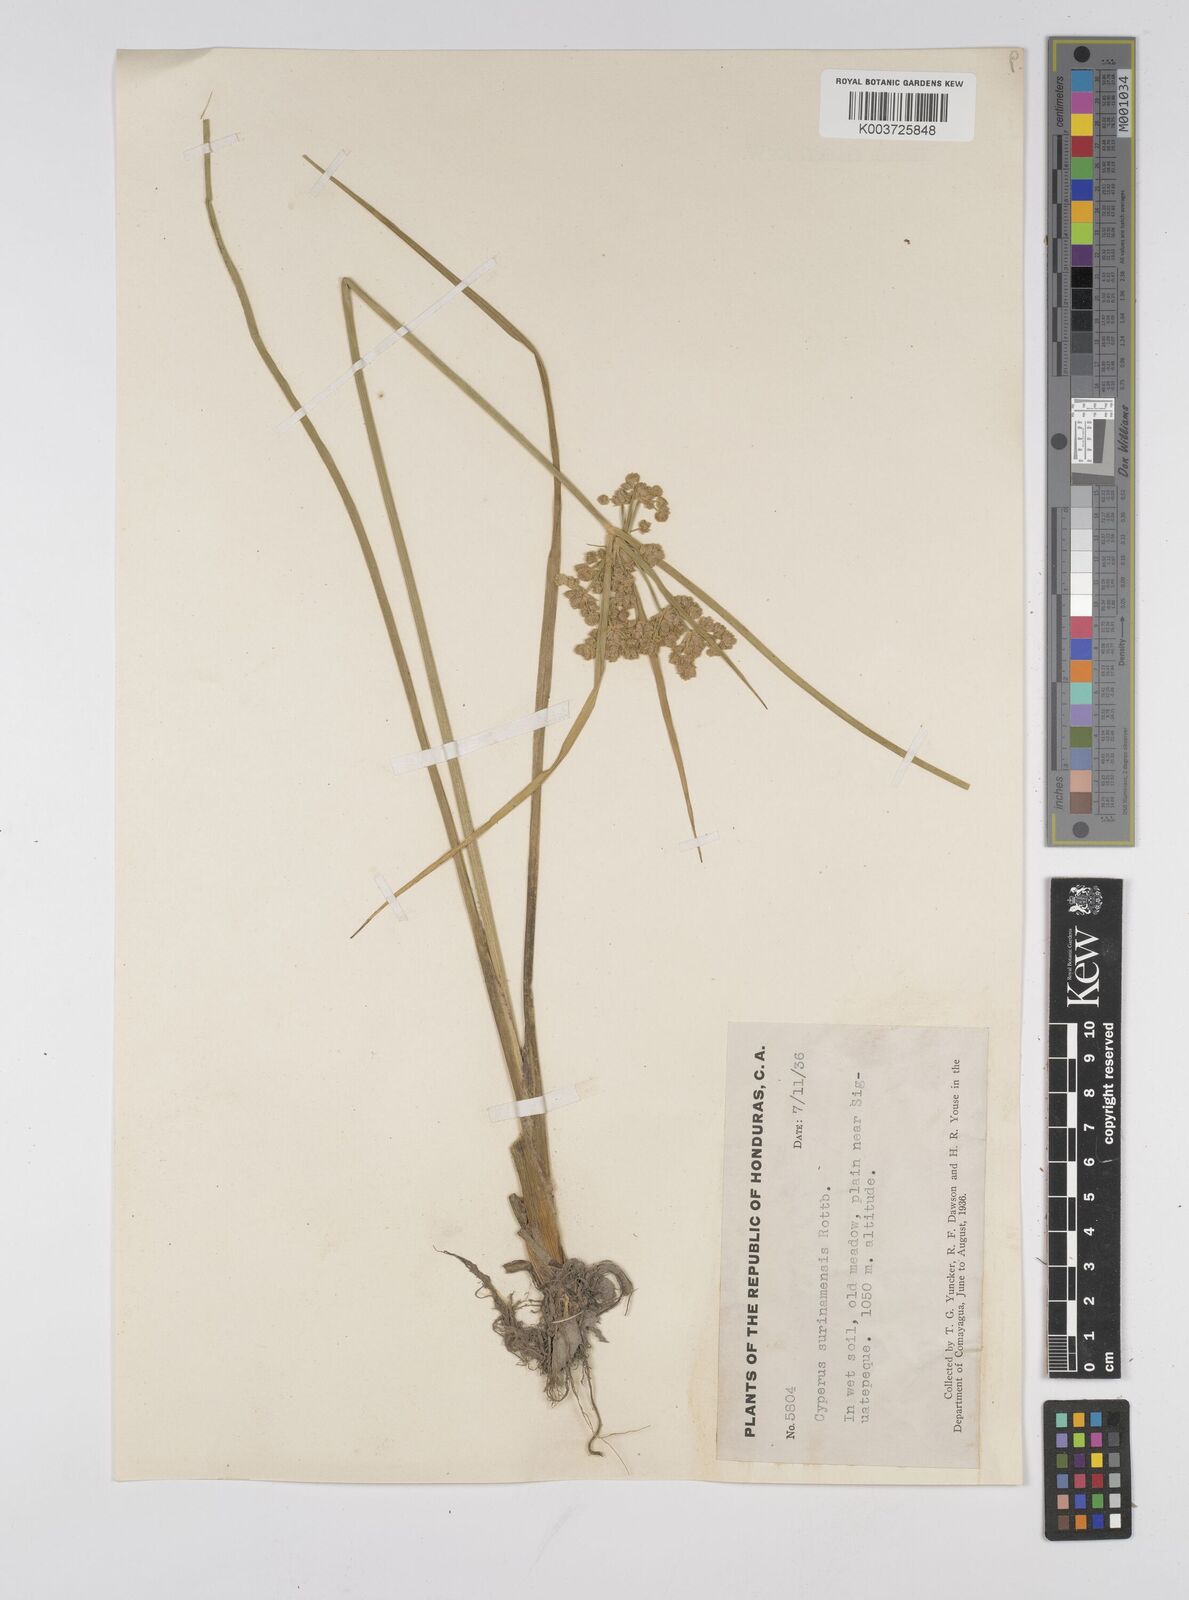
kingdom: Plantae
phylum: Tracheophyta
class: Liliopsida
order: Poales
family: Cyperaceae
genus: Cyperus
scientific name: Cyperus surinamensis
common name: Tropical flat sedge
